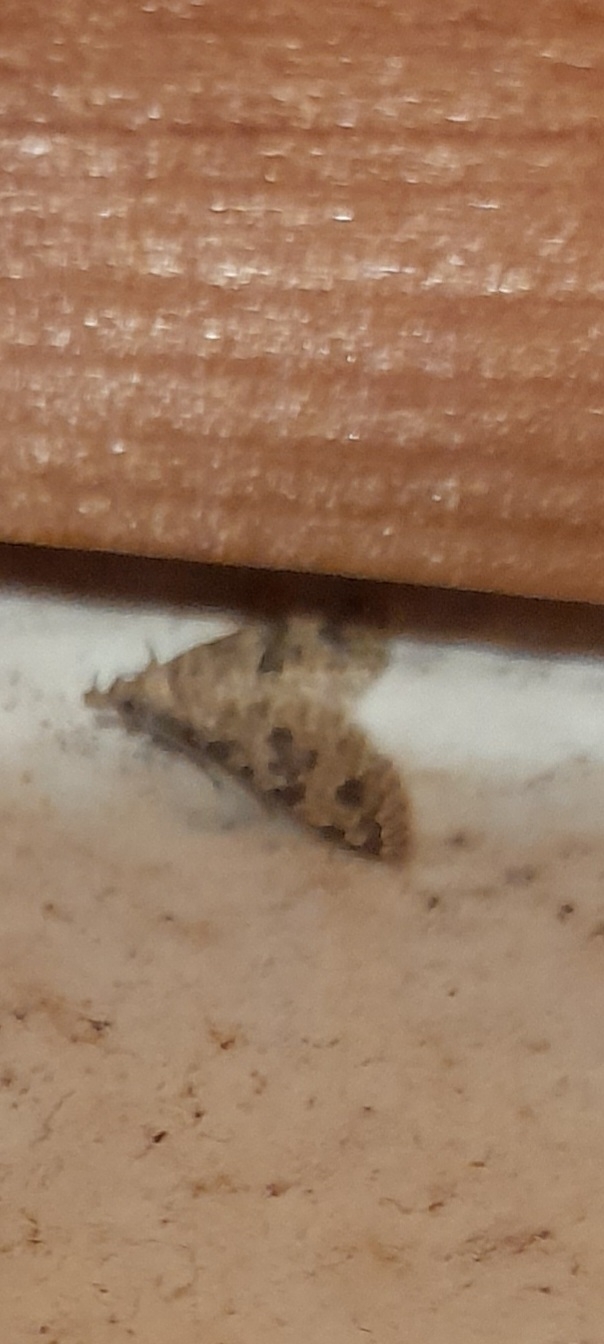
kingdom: Animalia
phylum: Arthropoda
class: Insecta
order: Lepidoptera
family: Alucitidae
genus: Alucita
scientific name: Alucita hexadactyla
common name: Kaprifoliefjermøl
